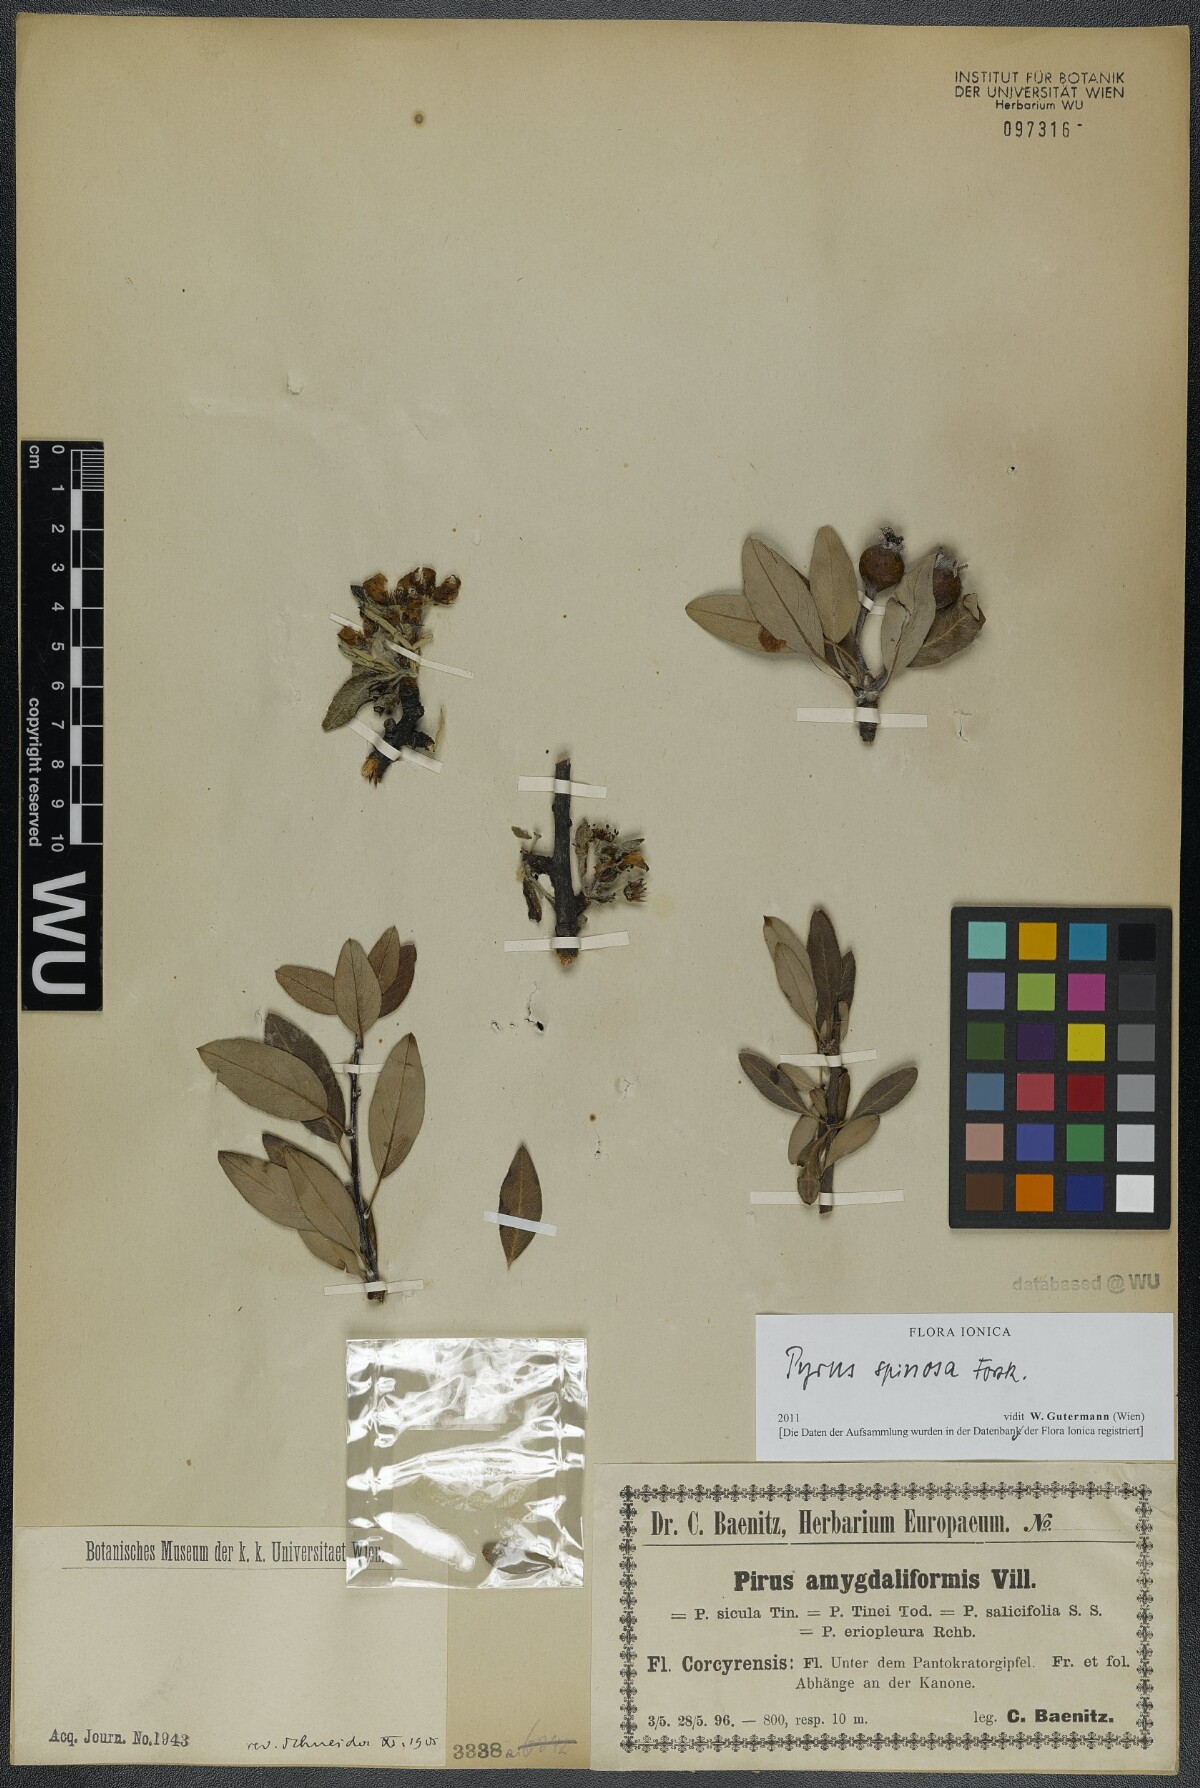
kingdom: Plantae
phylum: Tracheophyta
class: Magnoliopsida
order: Rosales
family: Rosaceae
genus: Pyrus
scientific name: Pyrus spinosa
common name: Almond-leaf pear
